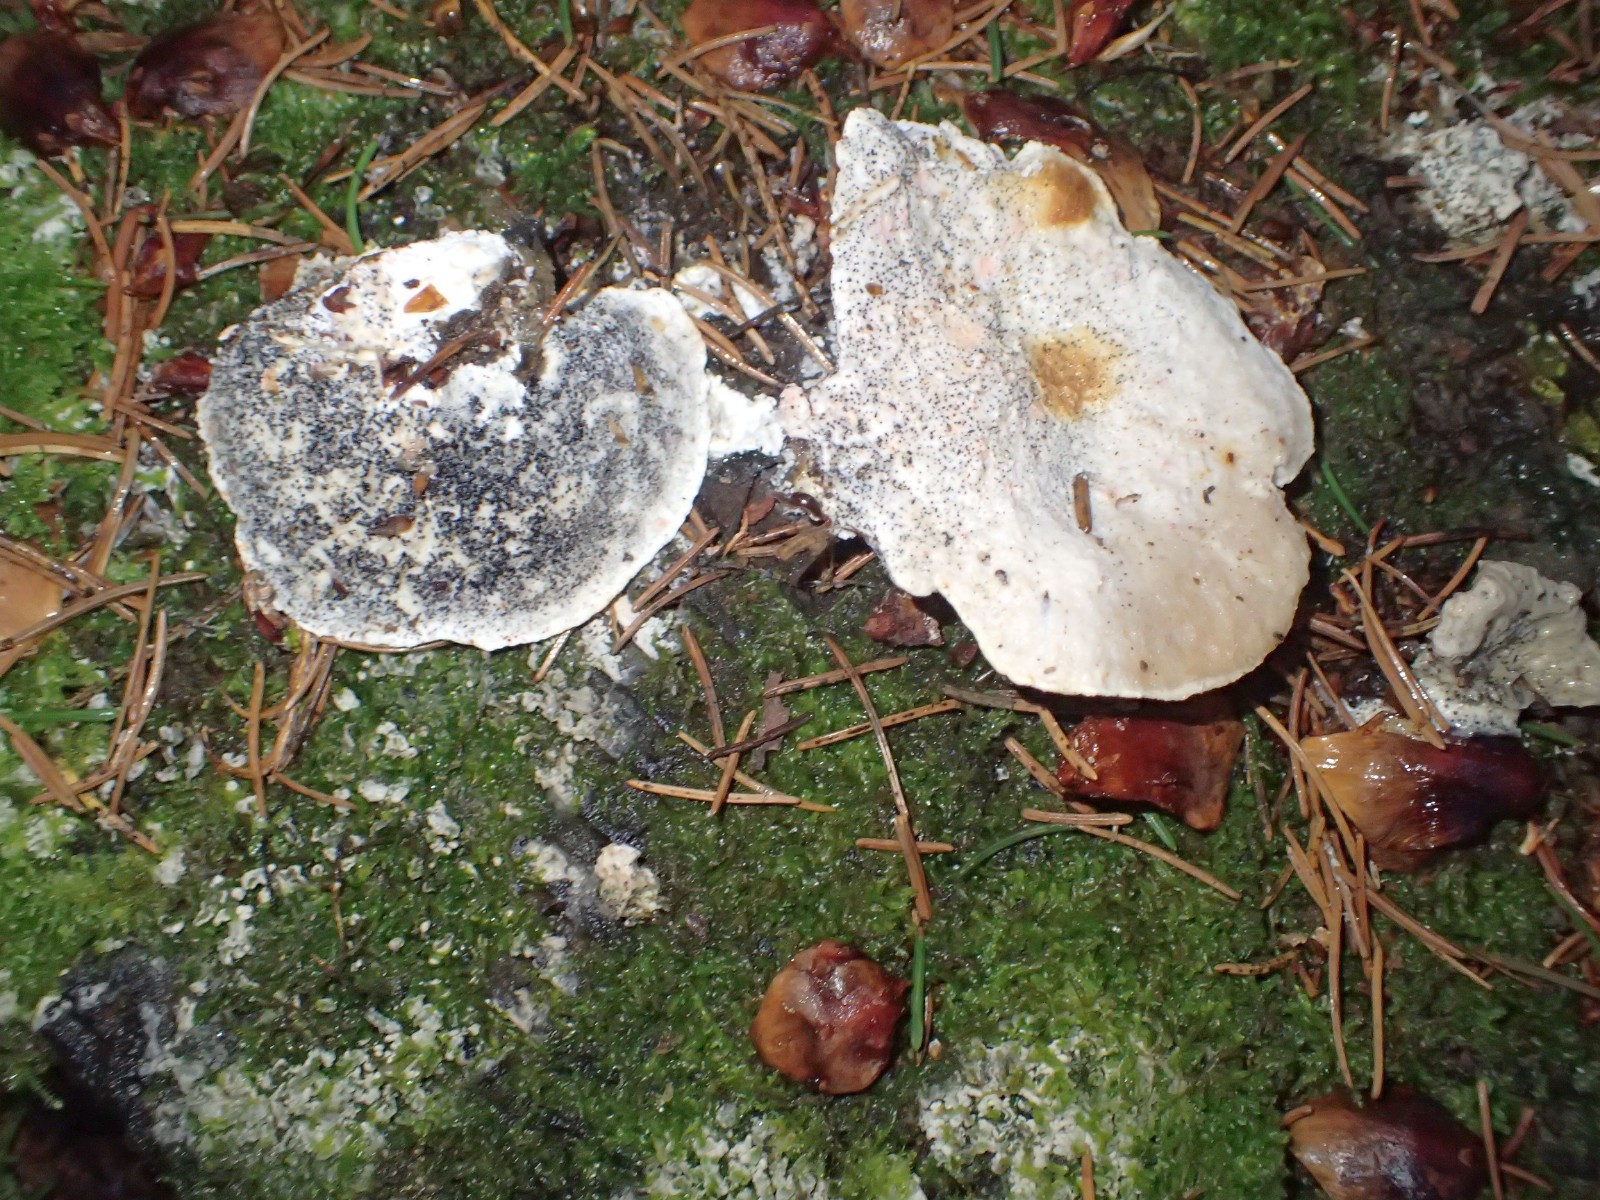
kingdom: Fungi
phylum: Basidiomycota
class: Agaricomycetes
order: Polyporales
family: Polyporaceae
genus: Cyanosporus
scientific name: Cyanosporus caesius
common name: blålig kødporesvamp
